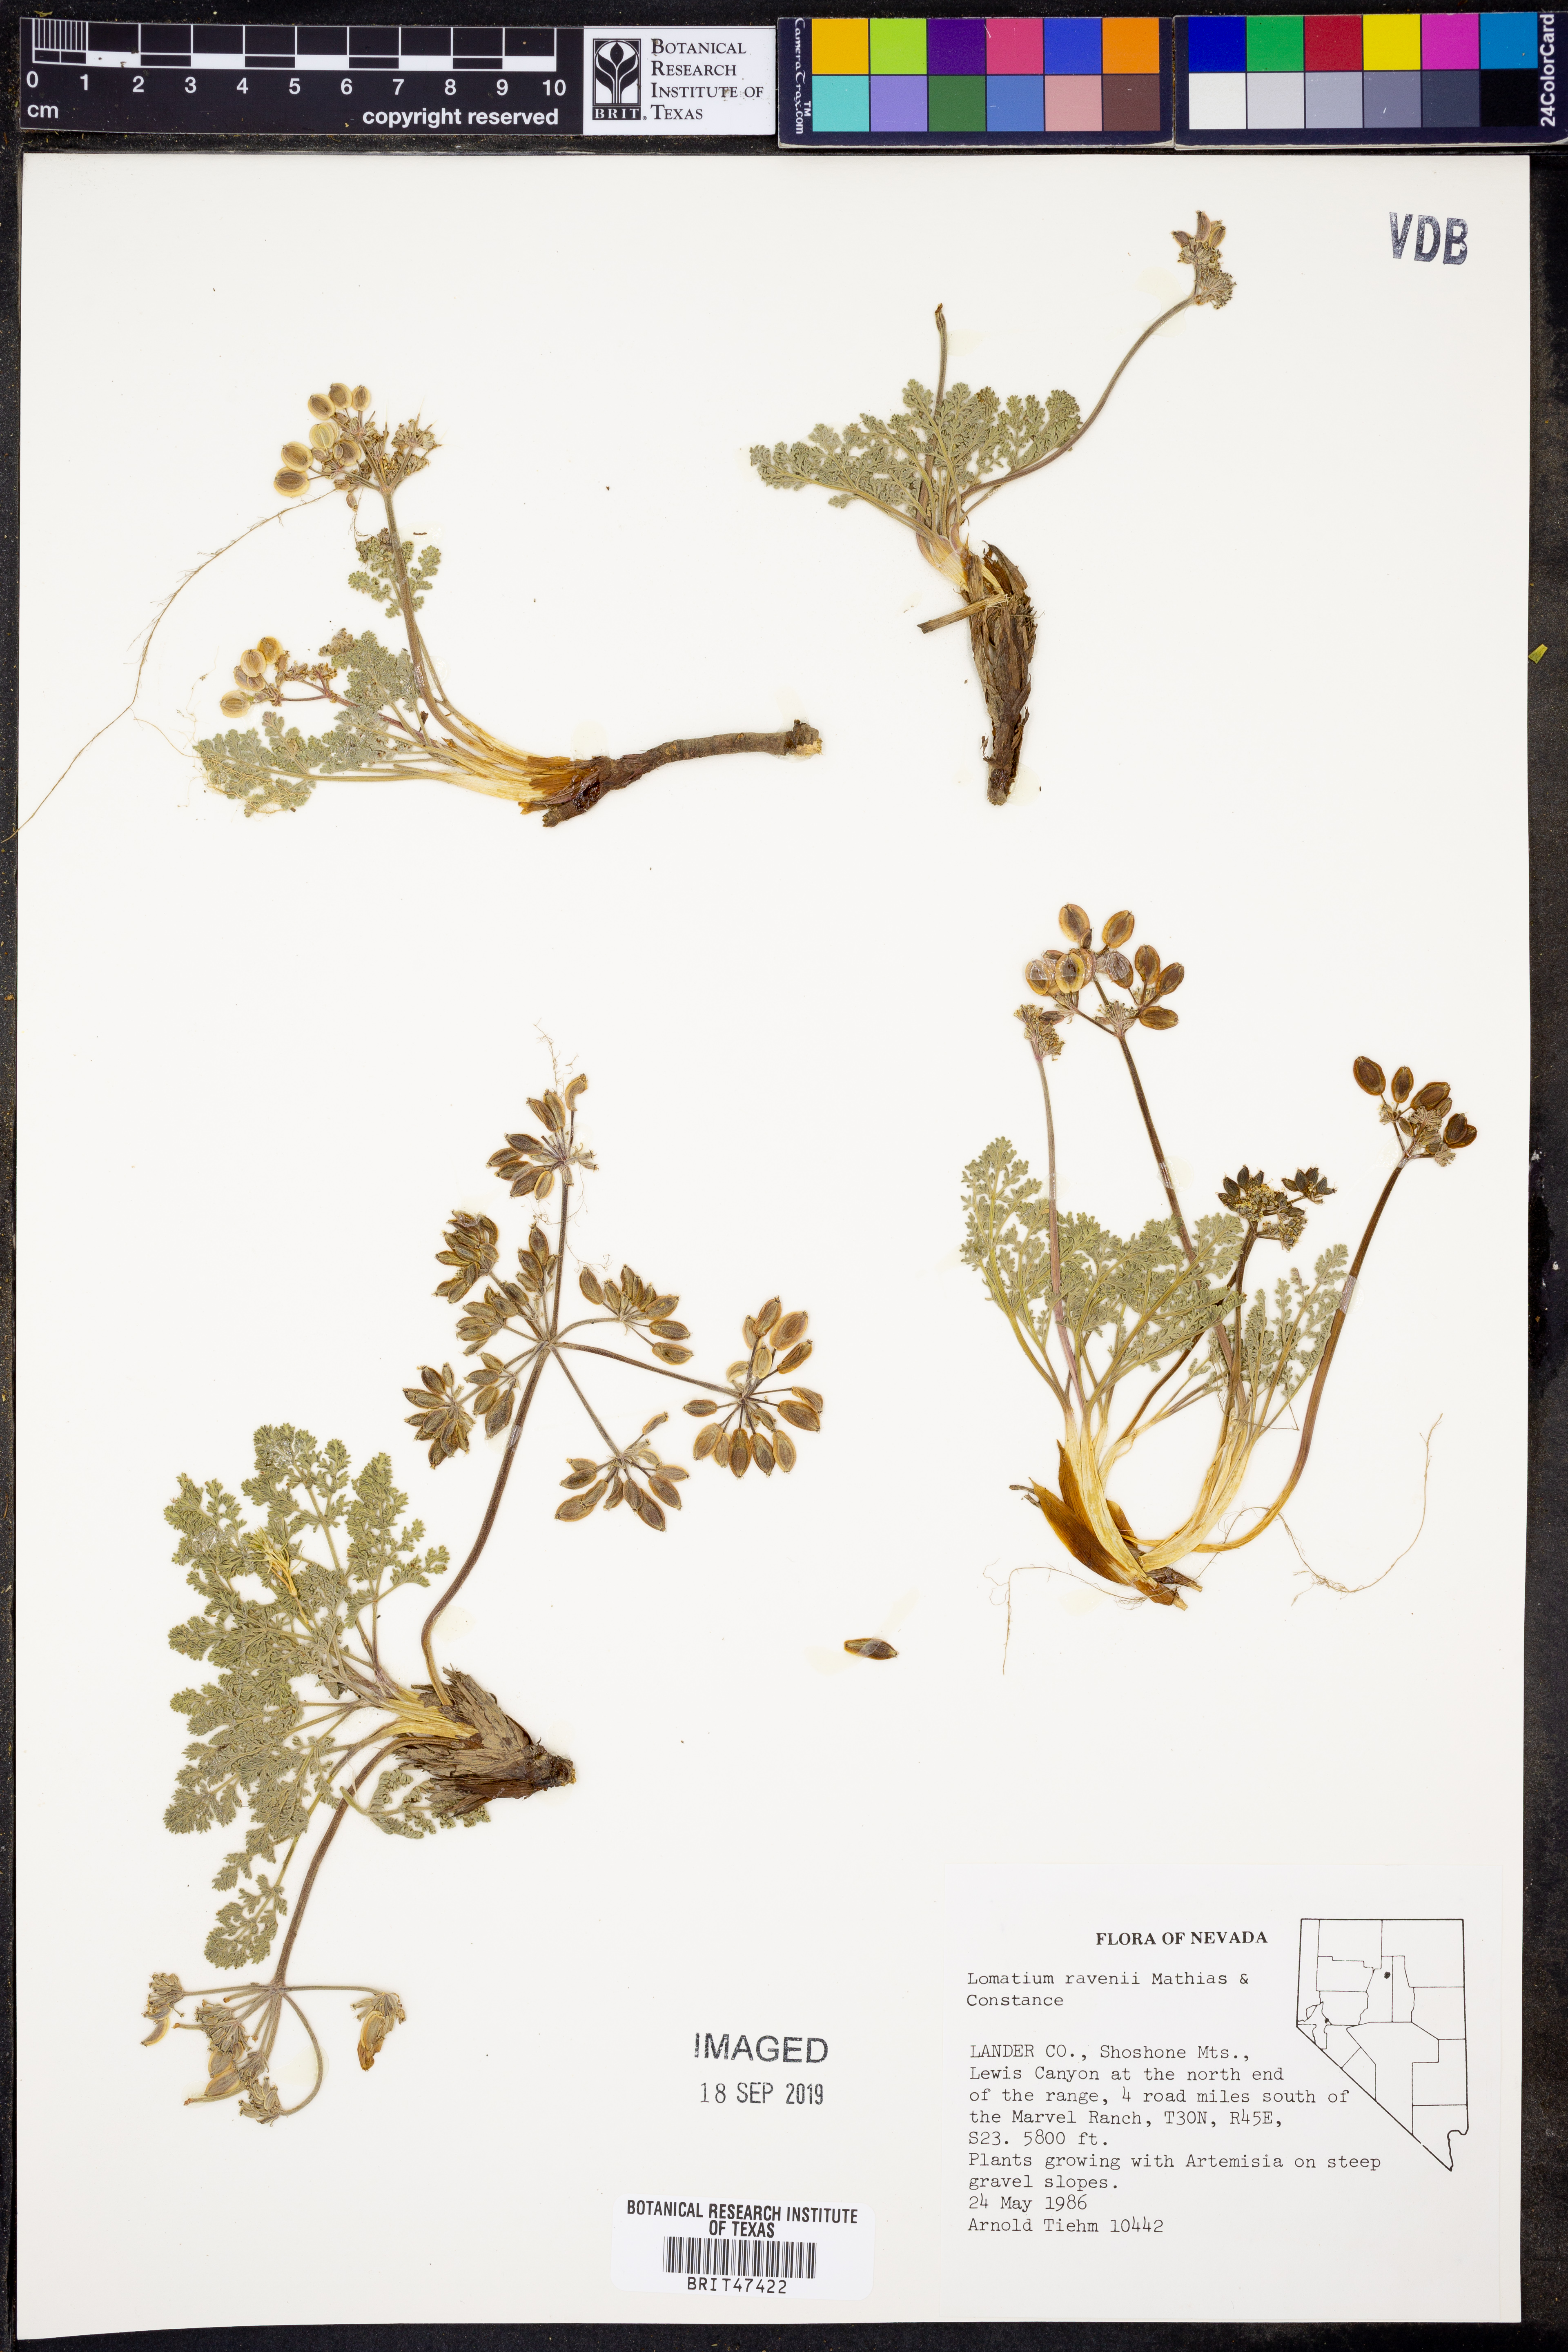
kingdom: Plantae
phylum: Tracheophyta
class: Magnoliopsida
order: Apiales
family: Apiaceae
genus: Lomatium
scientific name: Lomatium ravenii
